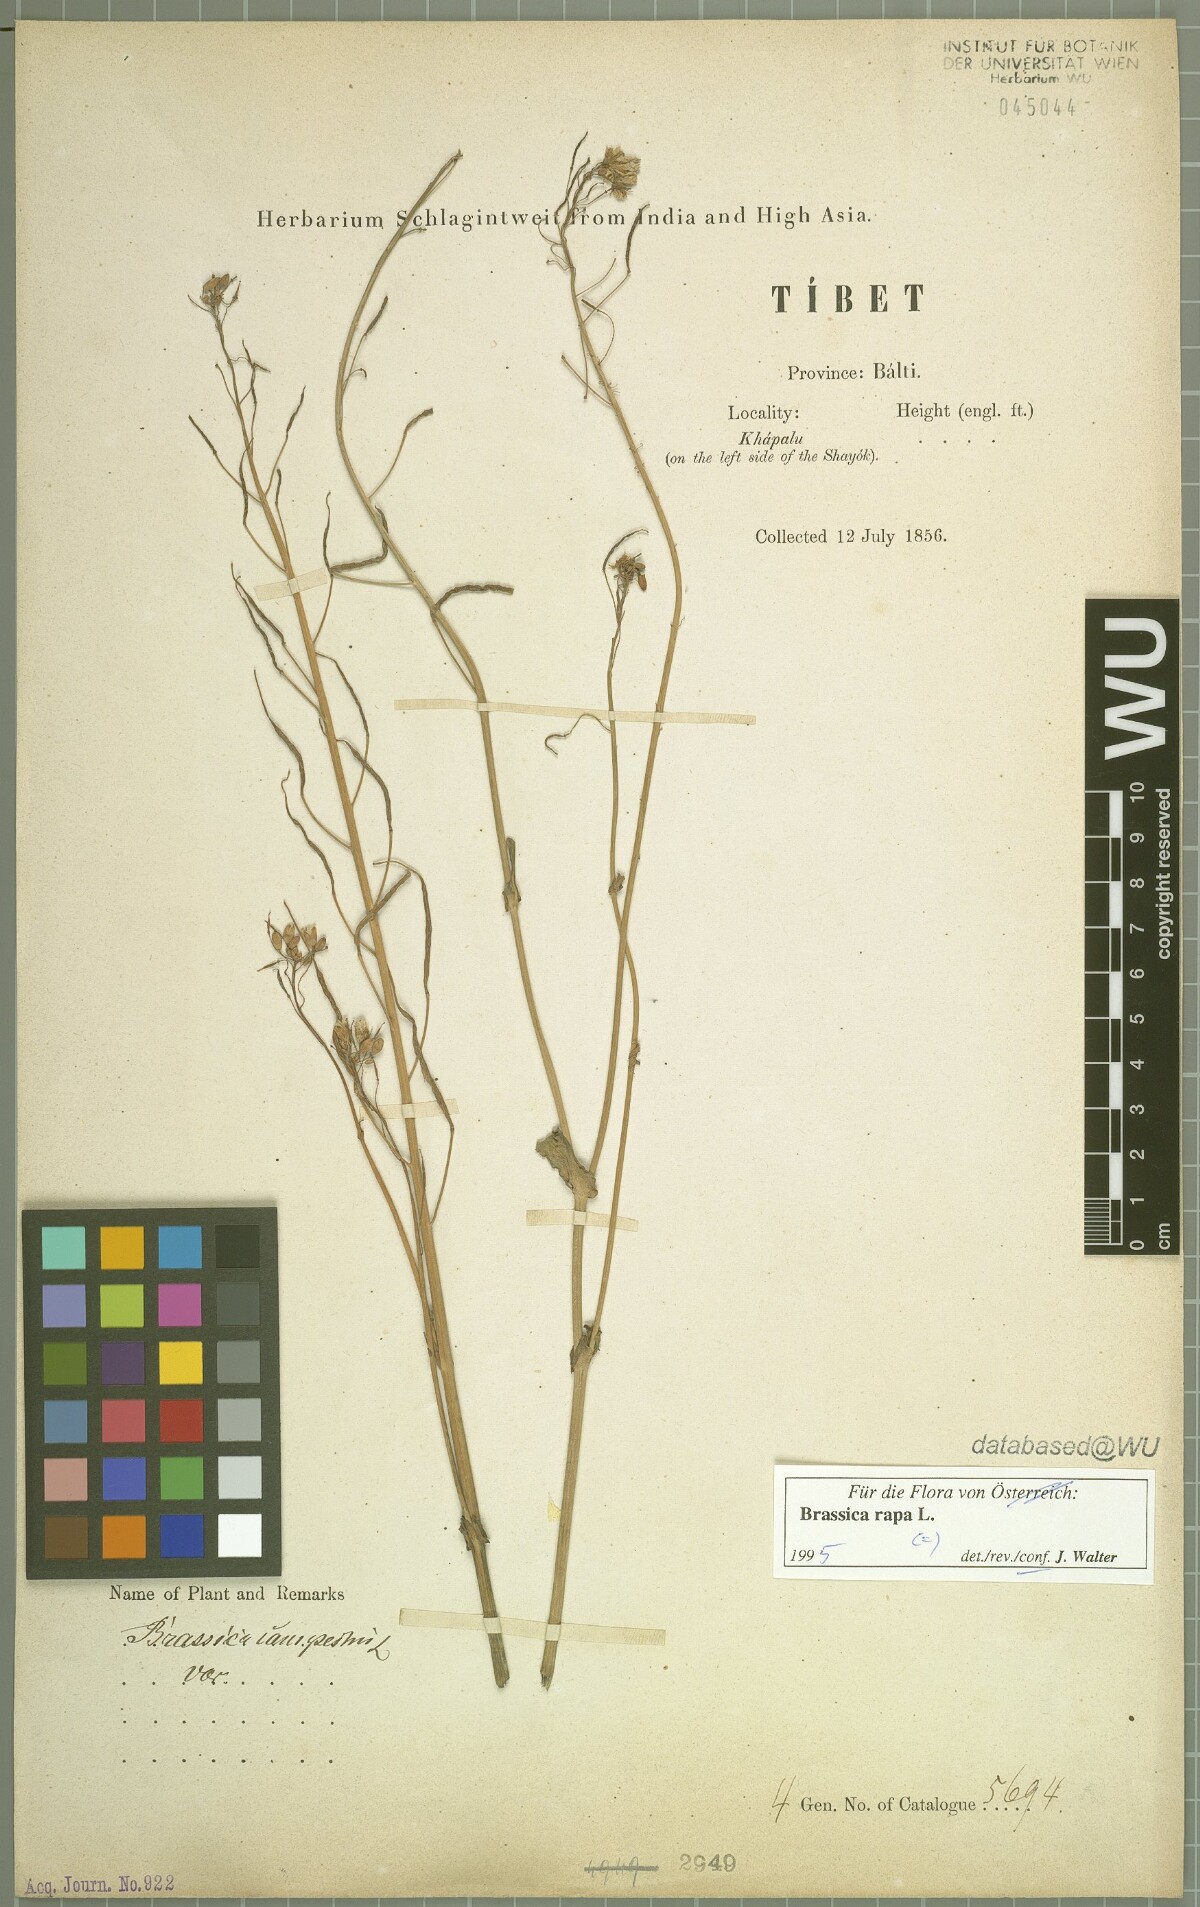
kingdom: Plantae
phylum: Tracheophyta
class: Magnoliopsida
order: Brassicales
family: Brassicaceae
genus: Brassica
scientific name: Brassica rapa
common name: Field mustard
